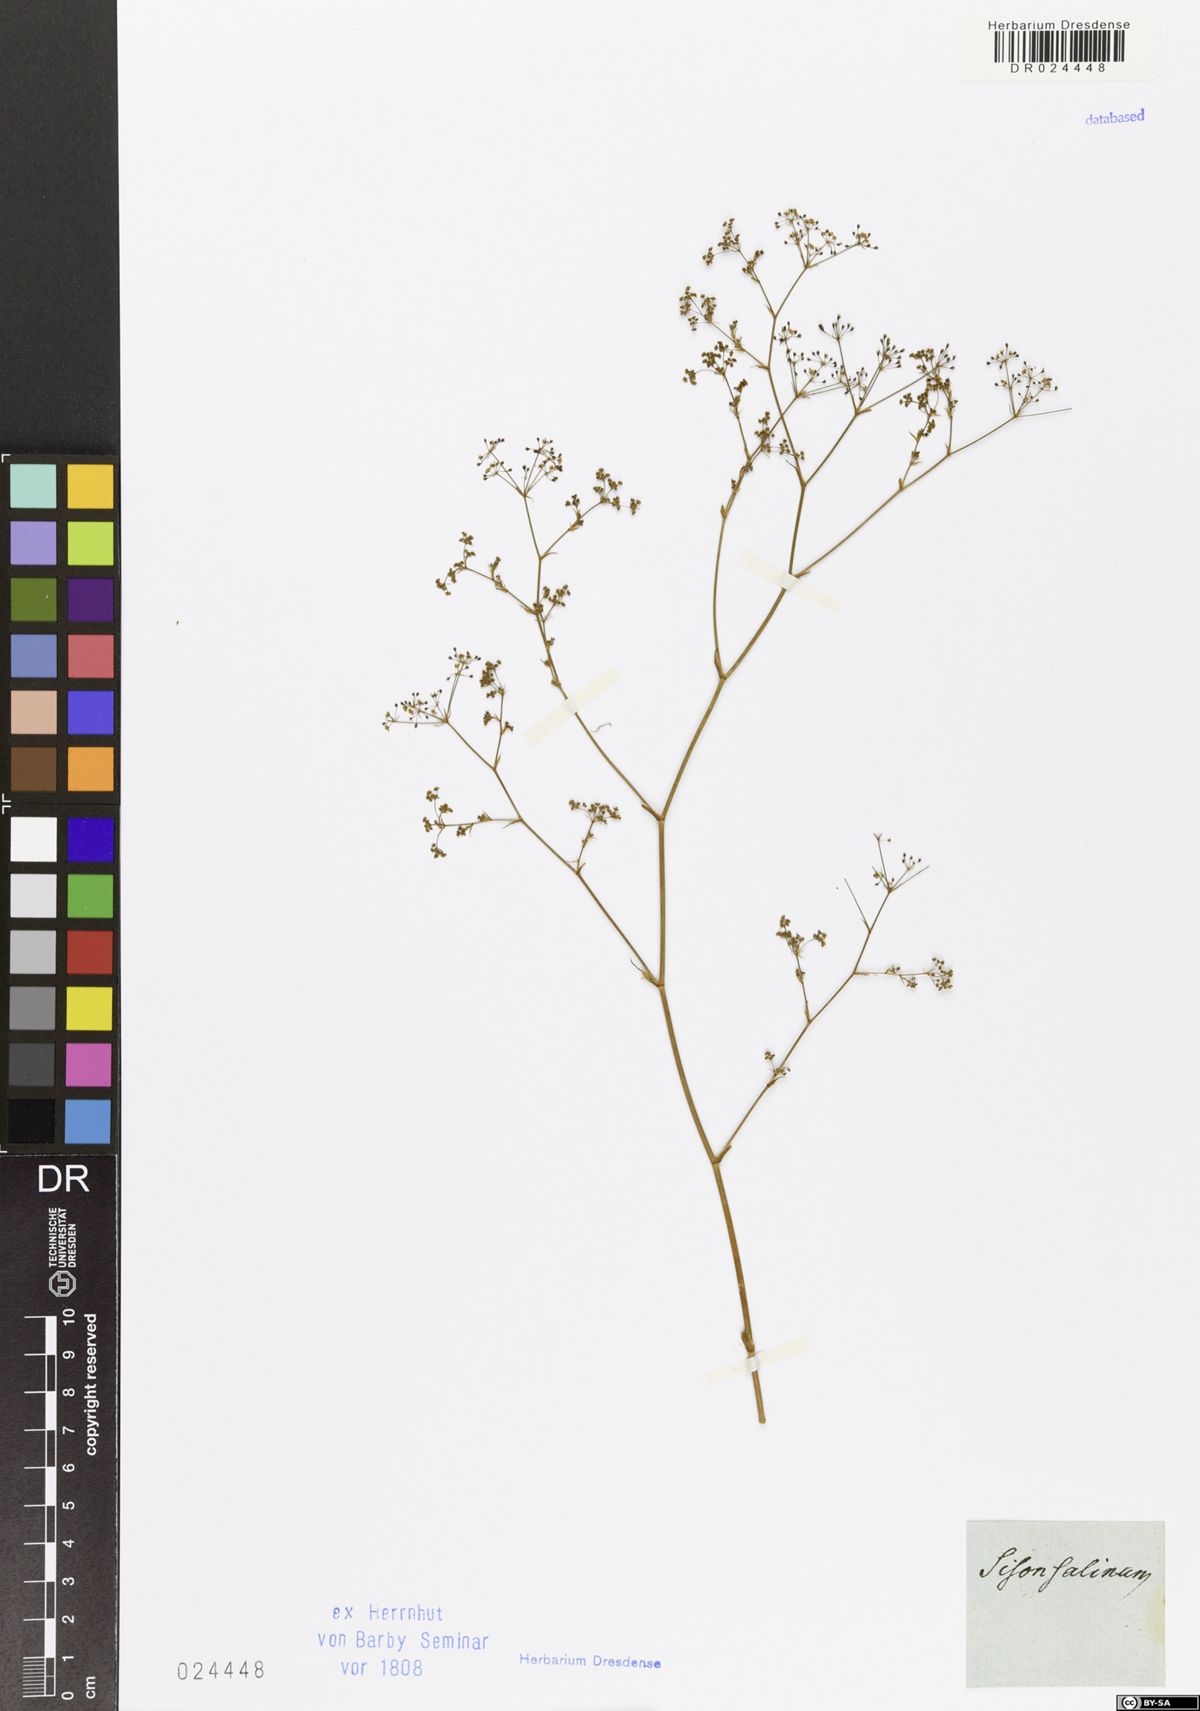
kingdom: Plantae
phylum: Tracheophyta
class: Magnoliopsida
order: Apiales
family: Apiaceae
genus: Elaeosticta
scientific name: Elaeosticta lutea
